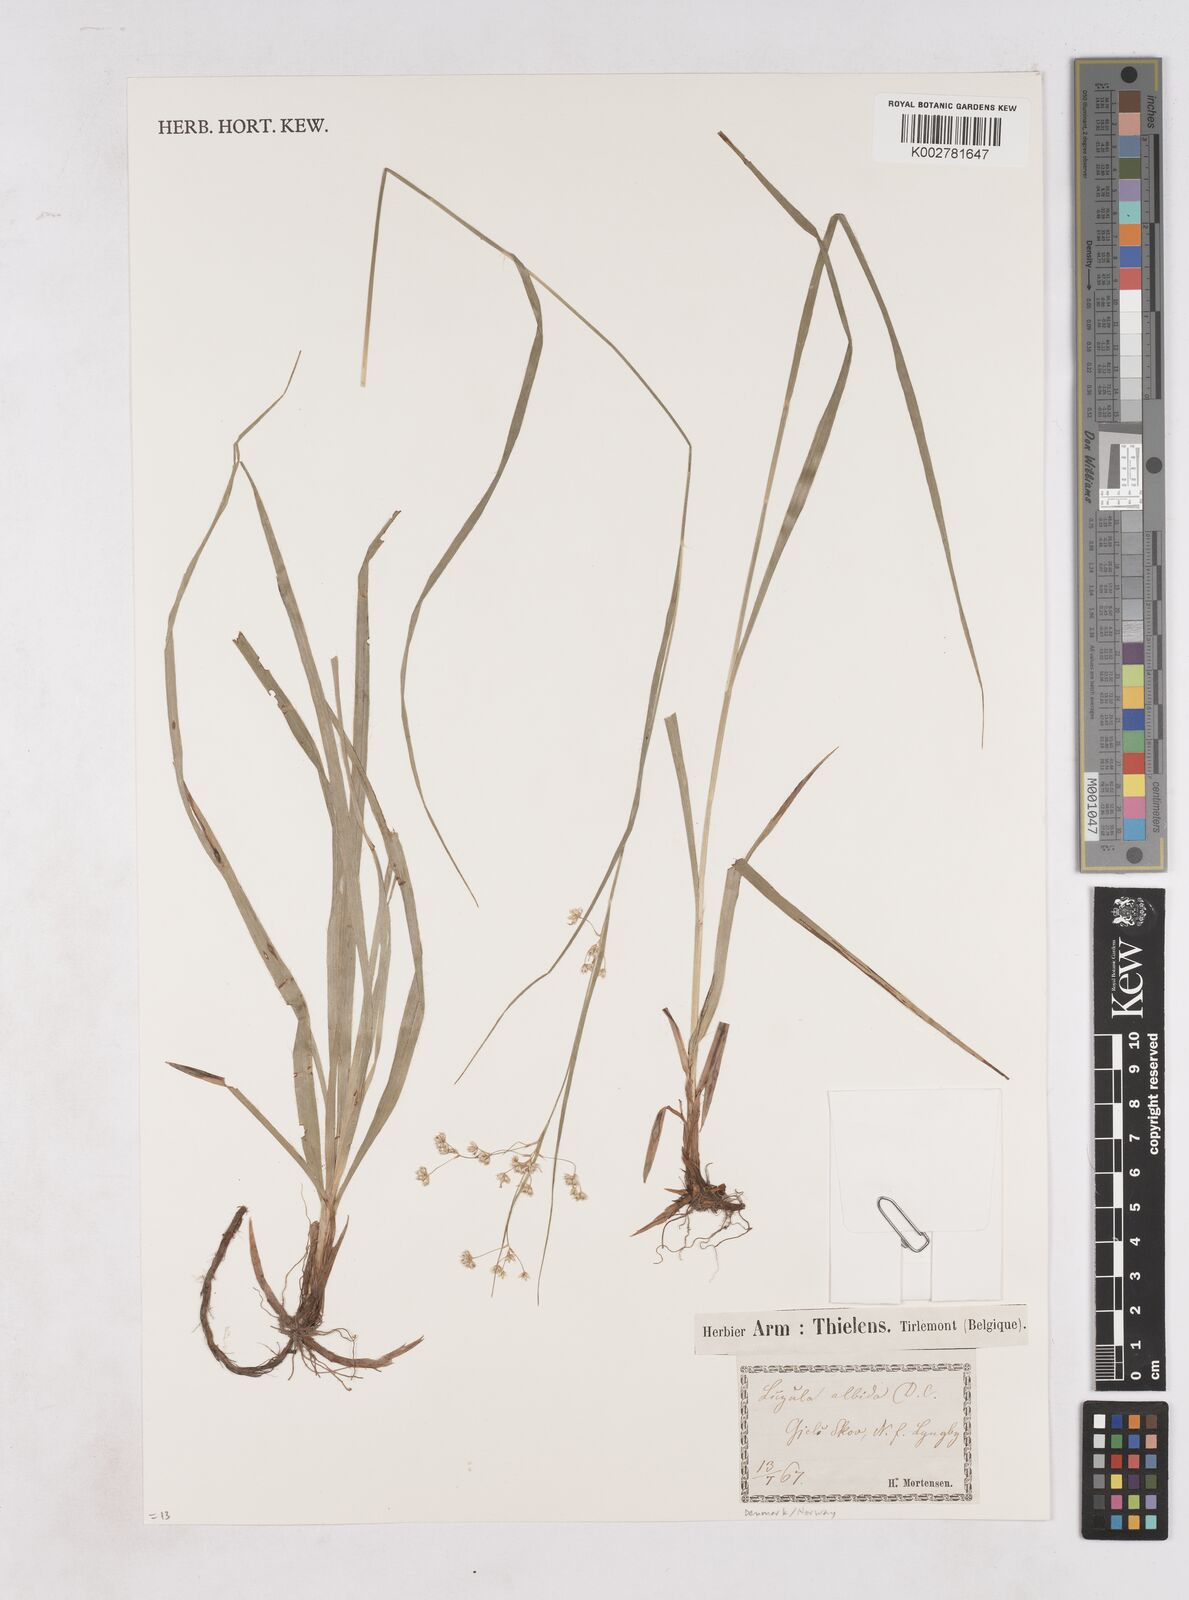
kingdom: Plantae
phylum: Tracheophyta
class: Liliopsida
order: Poales
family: Juncaceae
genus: Luzula
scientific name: Luzula luzuloides
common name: White wood-rush
